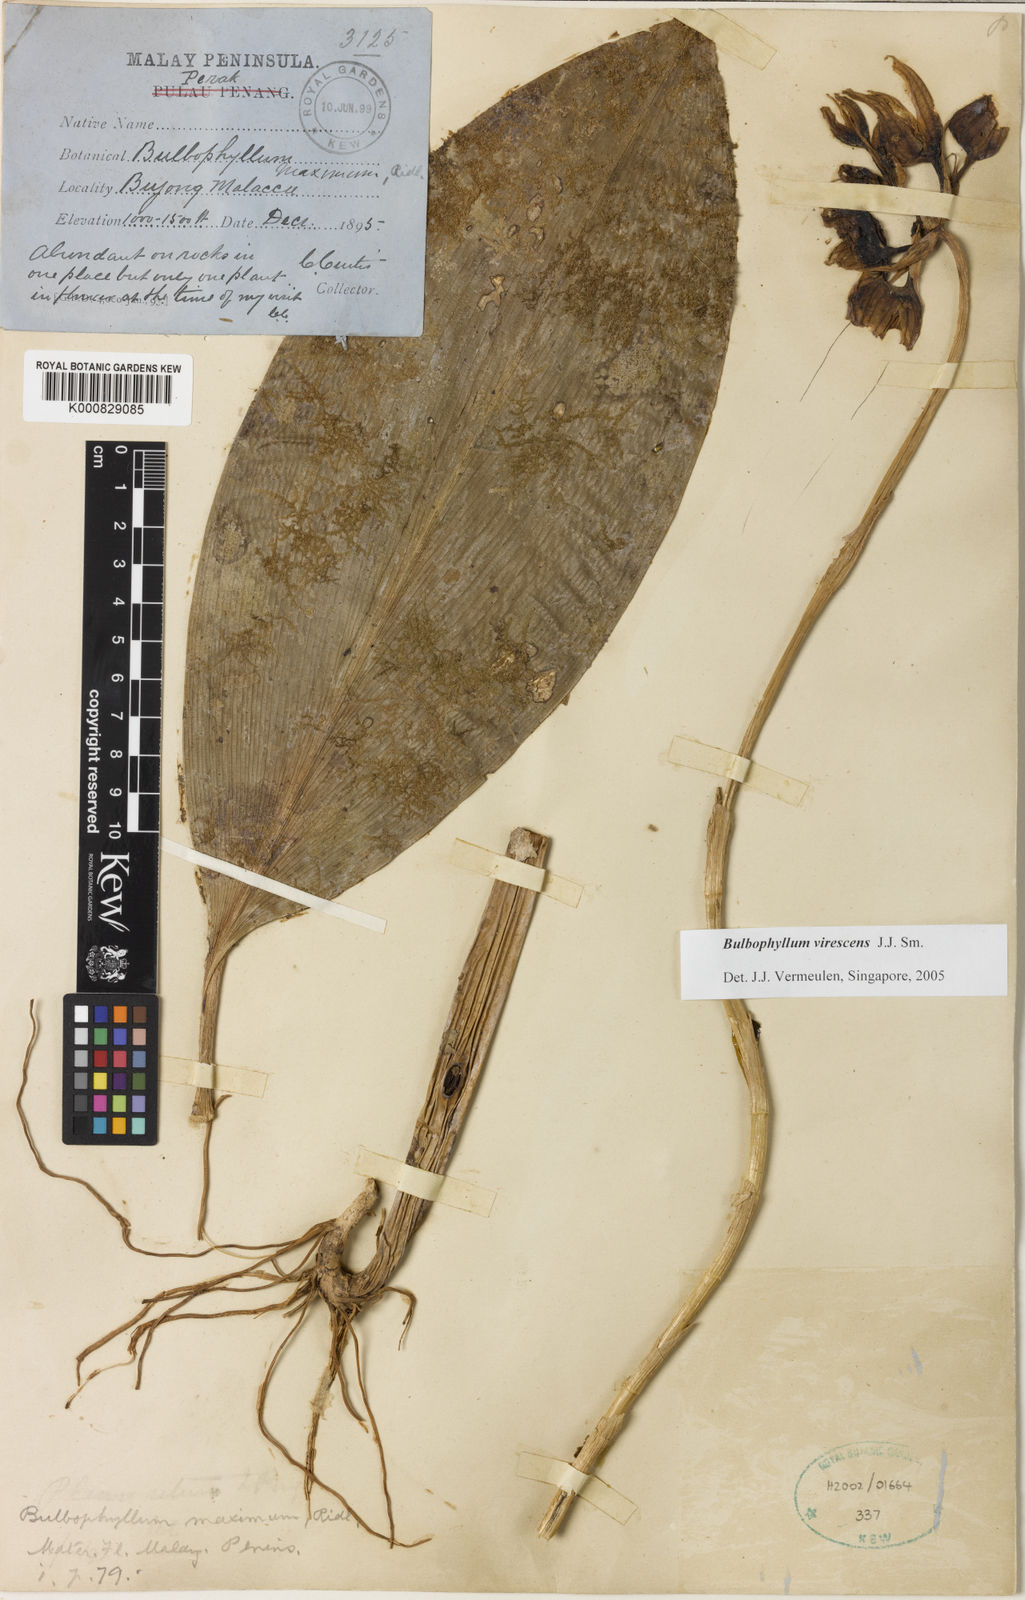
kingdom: Plantae
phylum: Tracheophyta
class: Liliopsida
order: Asparagales
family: Orchidaceae
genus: Bulbophyllum
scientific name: Bulbophyllum ericssonii
